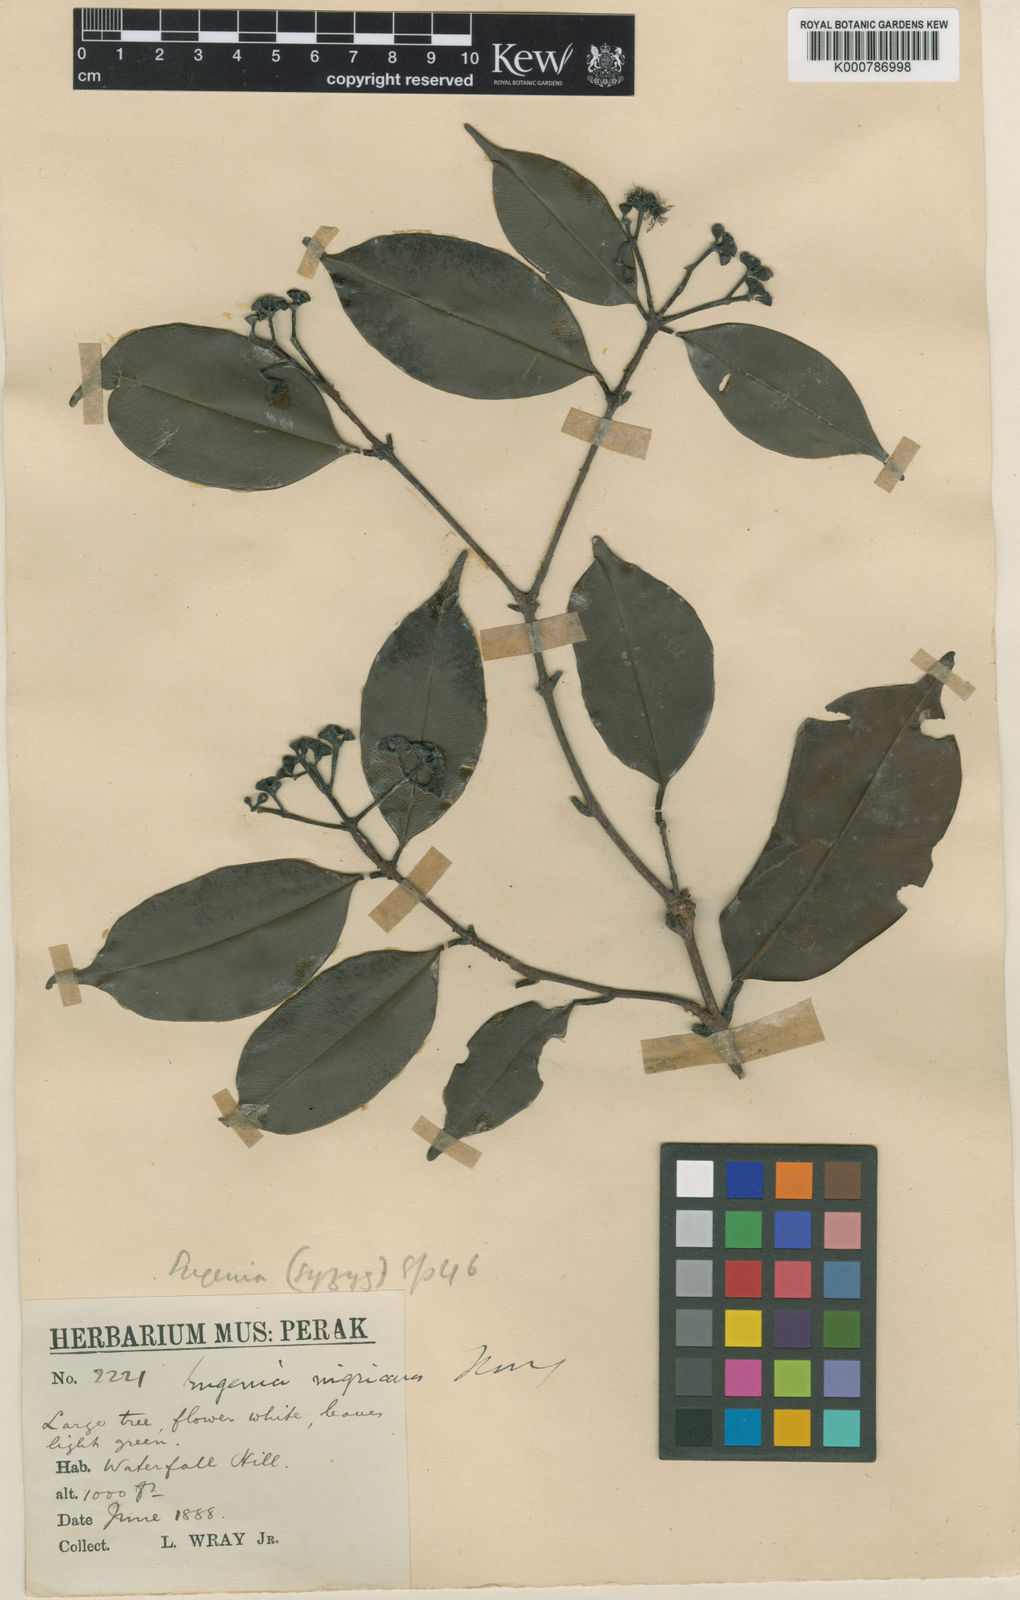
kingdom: Plantae
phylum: Tracheophyta
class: Magnoliopsida
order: Myrtales
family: Myrtaceae
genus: Syzygium
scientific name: Syzygium nigricans
